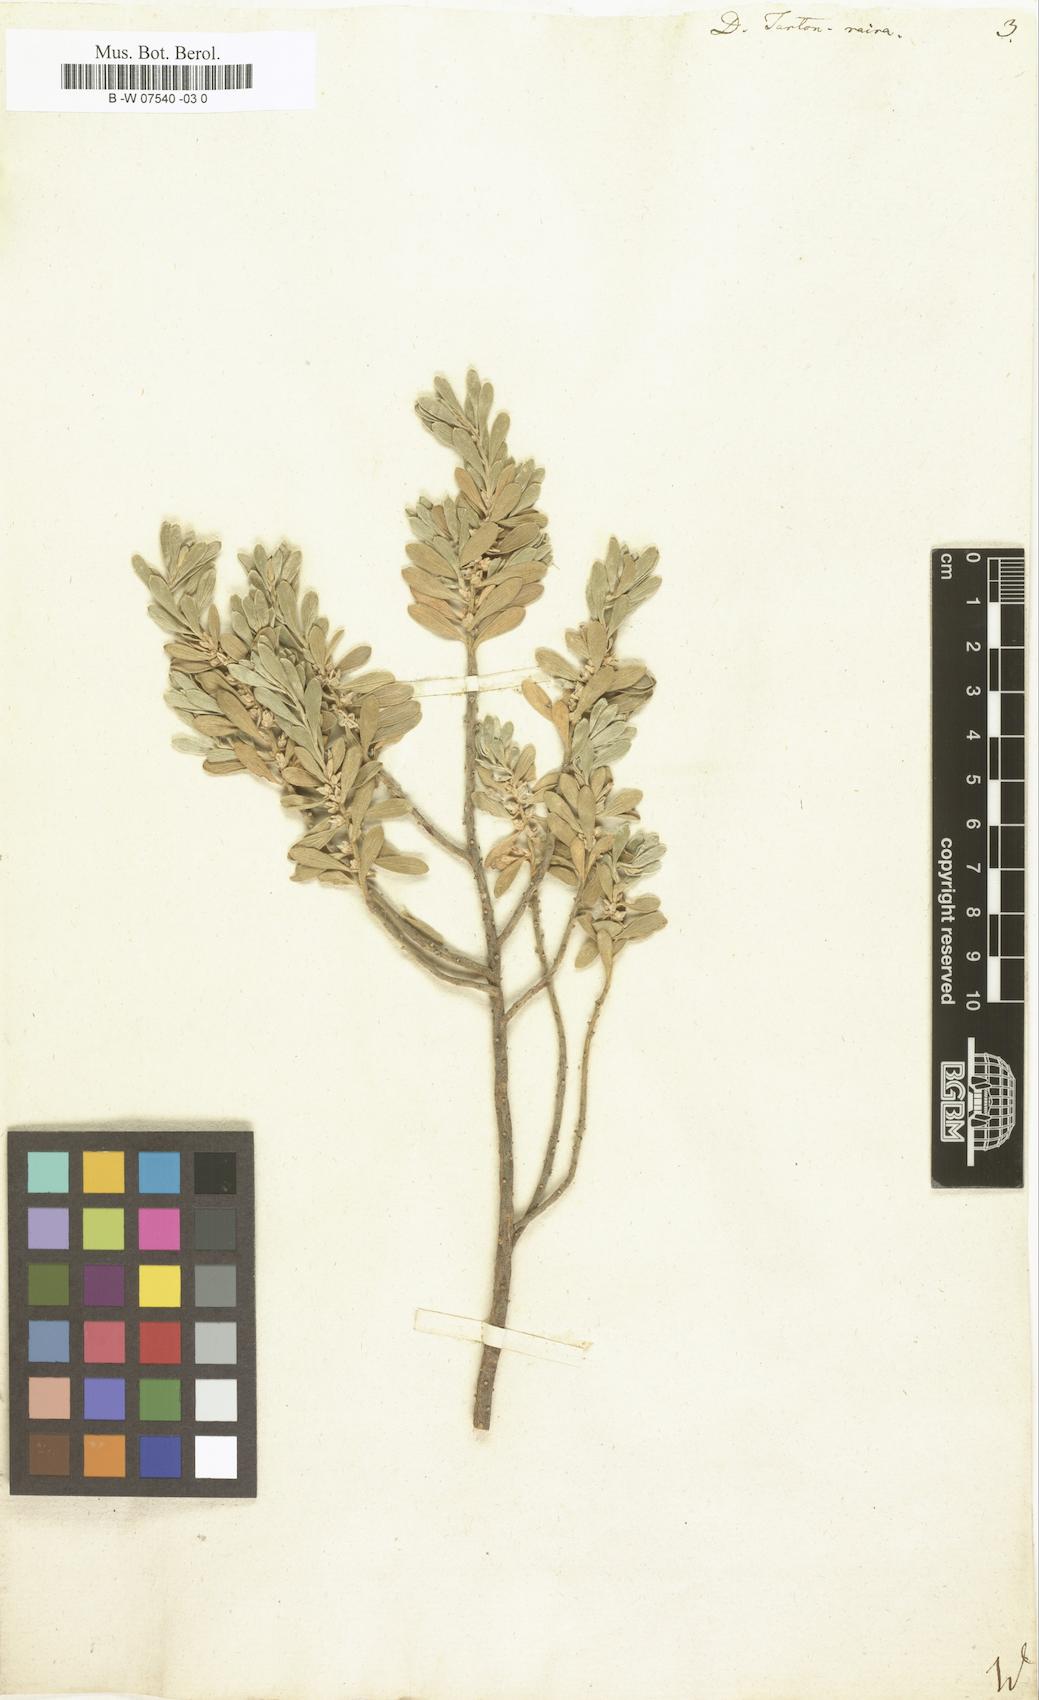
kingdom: Plantae
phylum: Tracheophyta
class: Magnoliopsida
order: Malvales
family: Thymelaeaceae
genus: Thymelaea
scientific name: Thymelaea tartonraira
